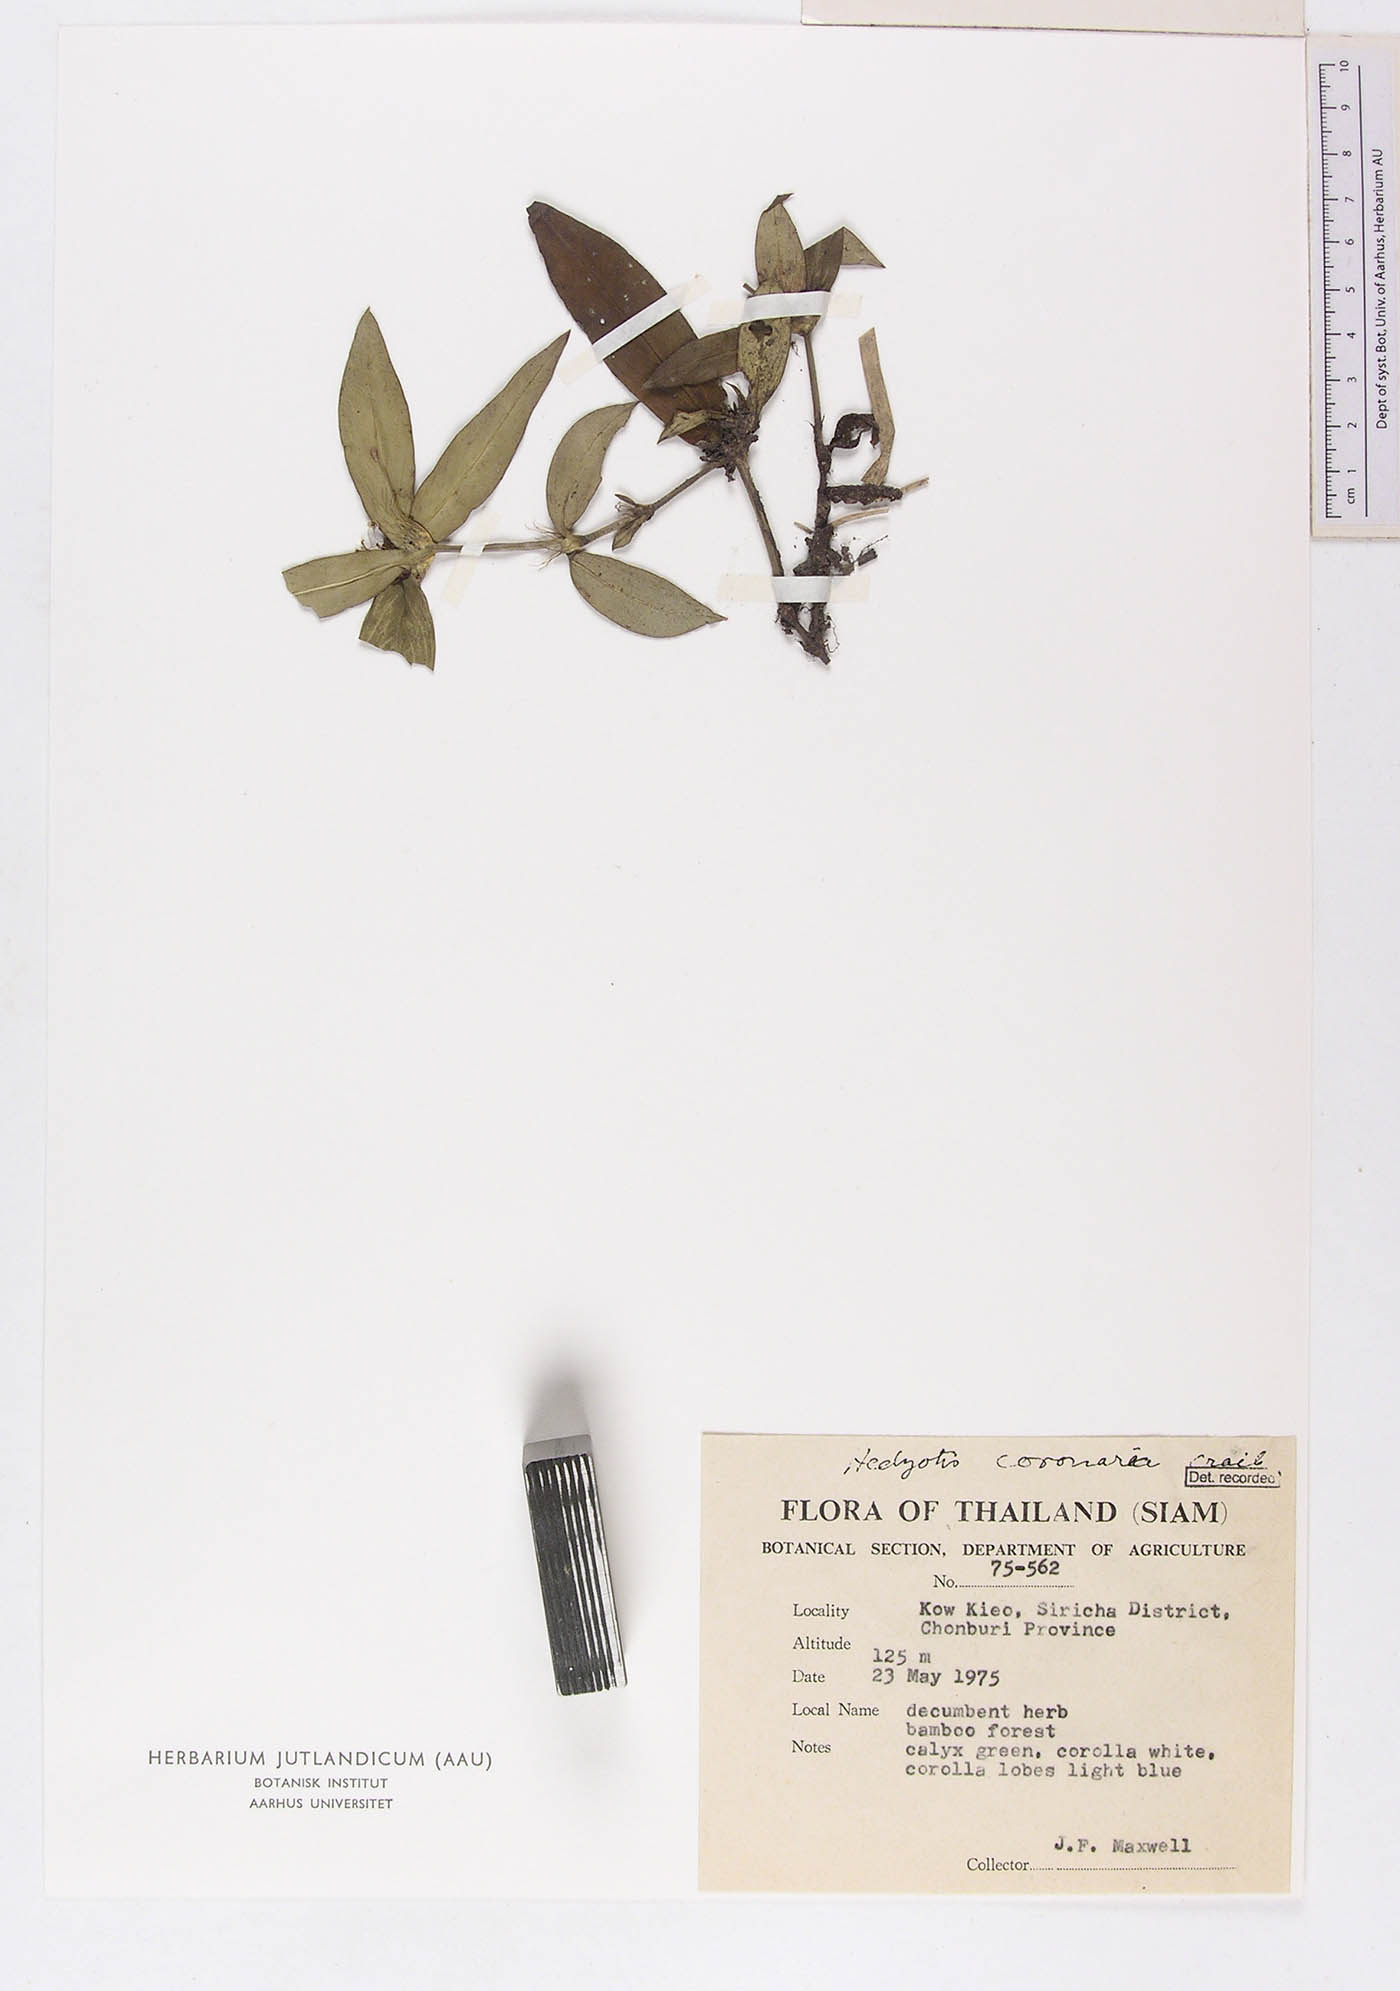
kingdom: Plantae
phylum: Tracheophyta
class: Magnoliopsida
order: Gentianales
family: Rubiaceae
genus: Involucrella
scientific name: Involucrella coronaria
